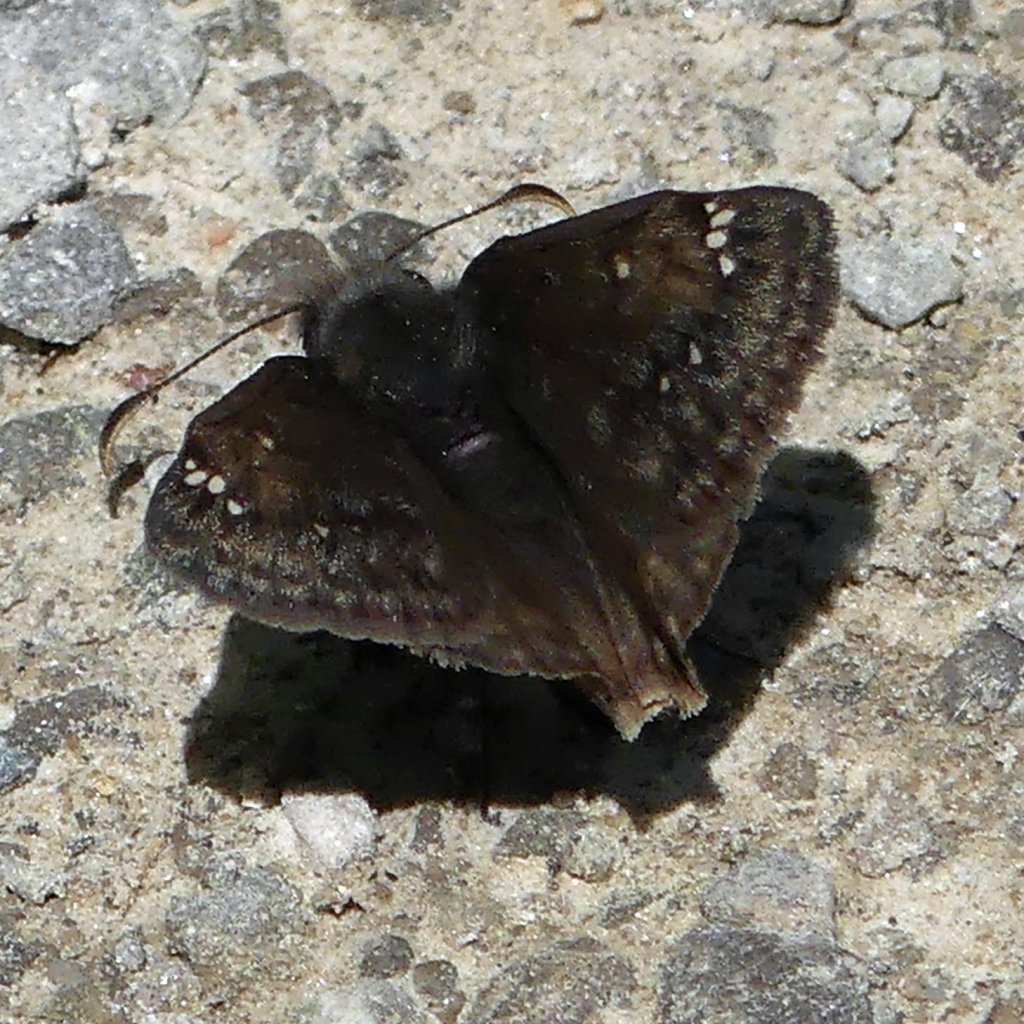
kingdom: Animalia
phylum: Arthropoda
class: Insecta
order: Lepidoptera
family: Hesperiidae
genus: Gesta
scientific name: Gesta
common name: Juvenal's Duskywing
